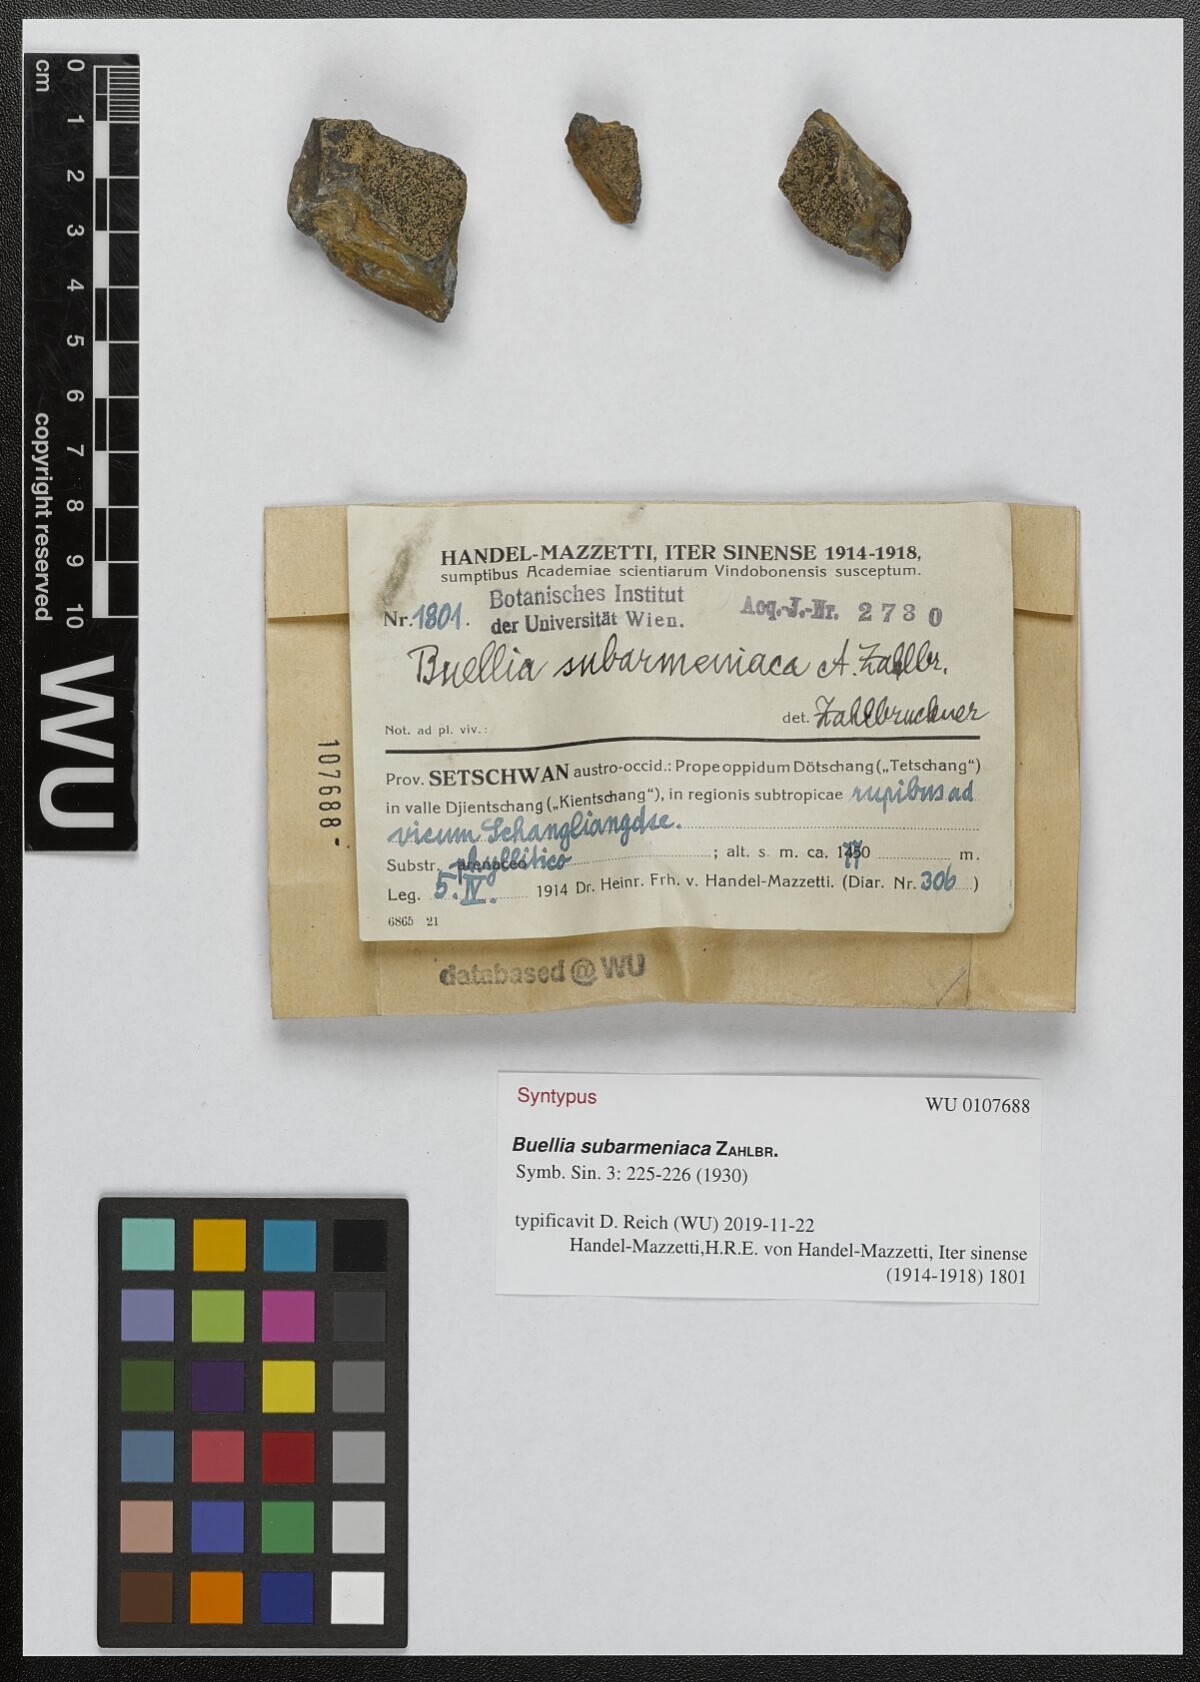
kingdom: Fungi
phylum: Ascomycota
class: Lecanoromycetes
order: Caliciales
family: Physciaceae
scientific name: Physciaceae
